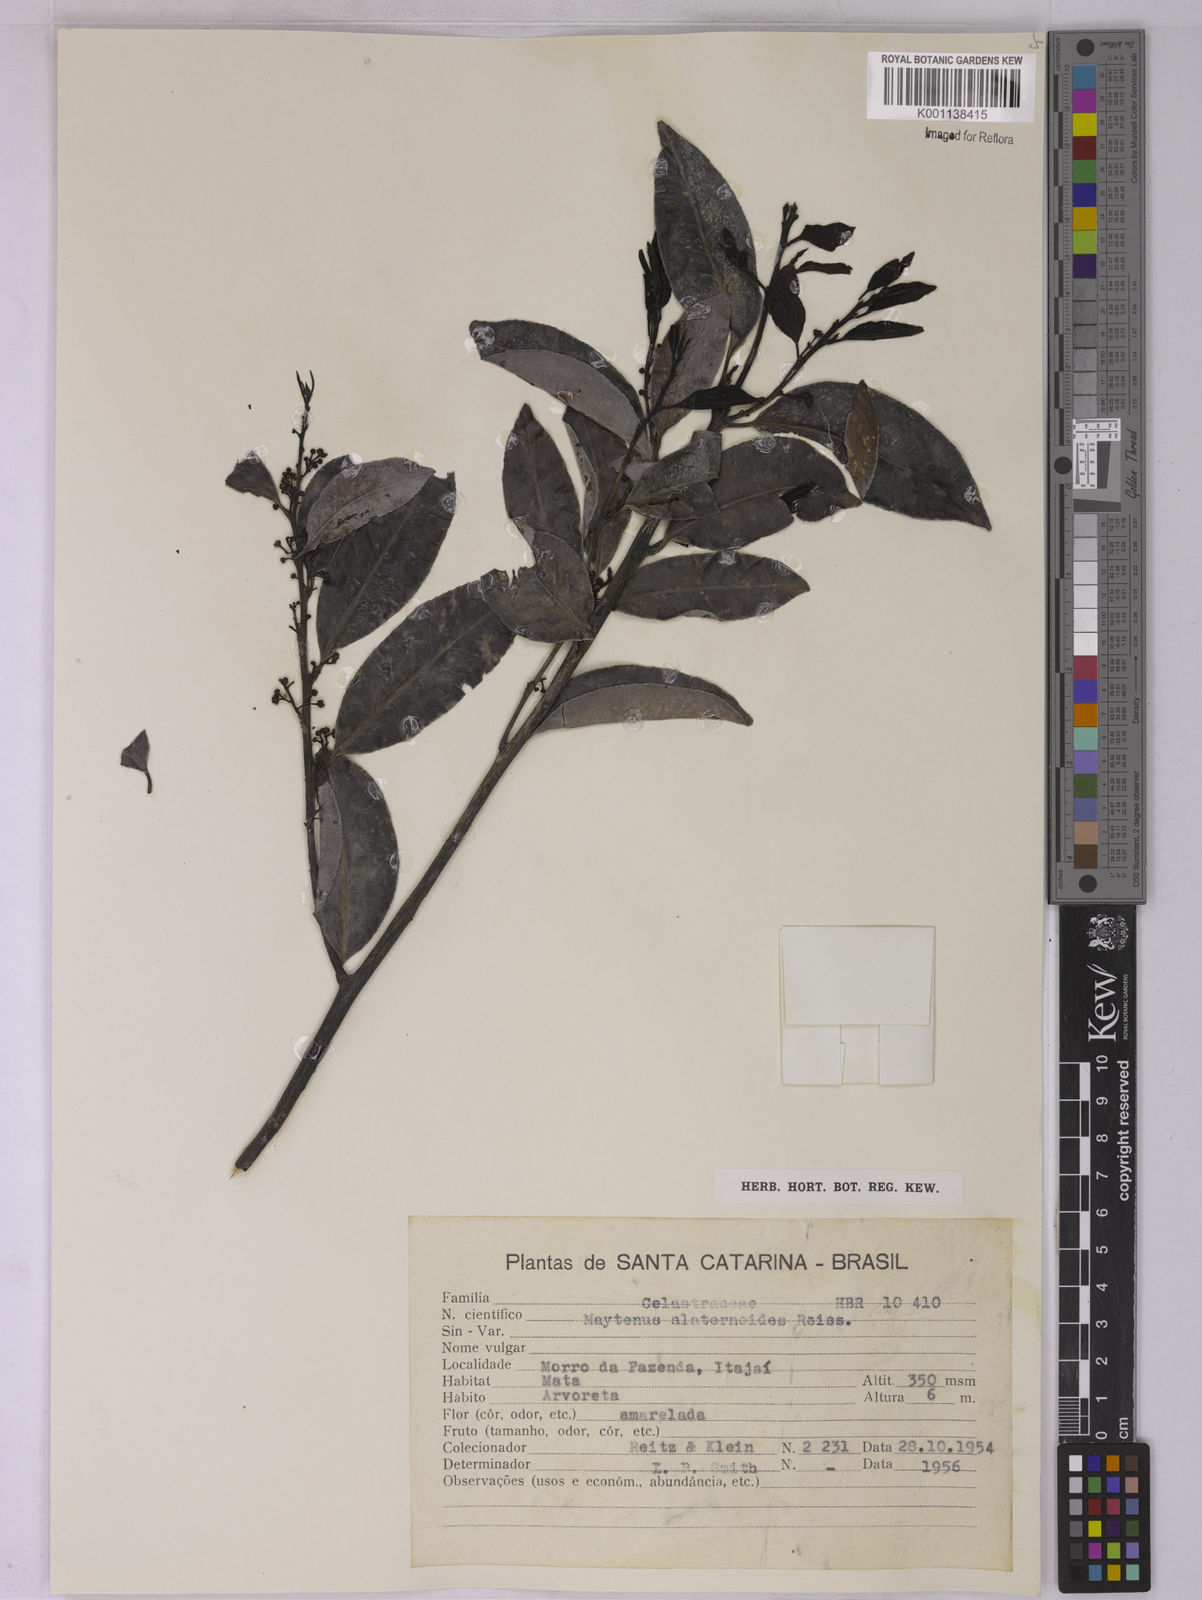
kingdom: Plantae
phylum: Tracheophyta
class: Magnoliopsida
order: Celastrales
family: Celastraceae
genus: Maytenus
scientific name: Maytenus alaternoides
